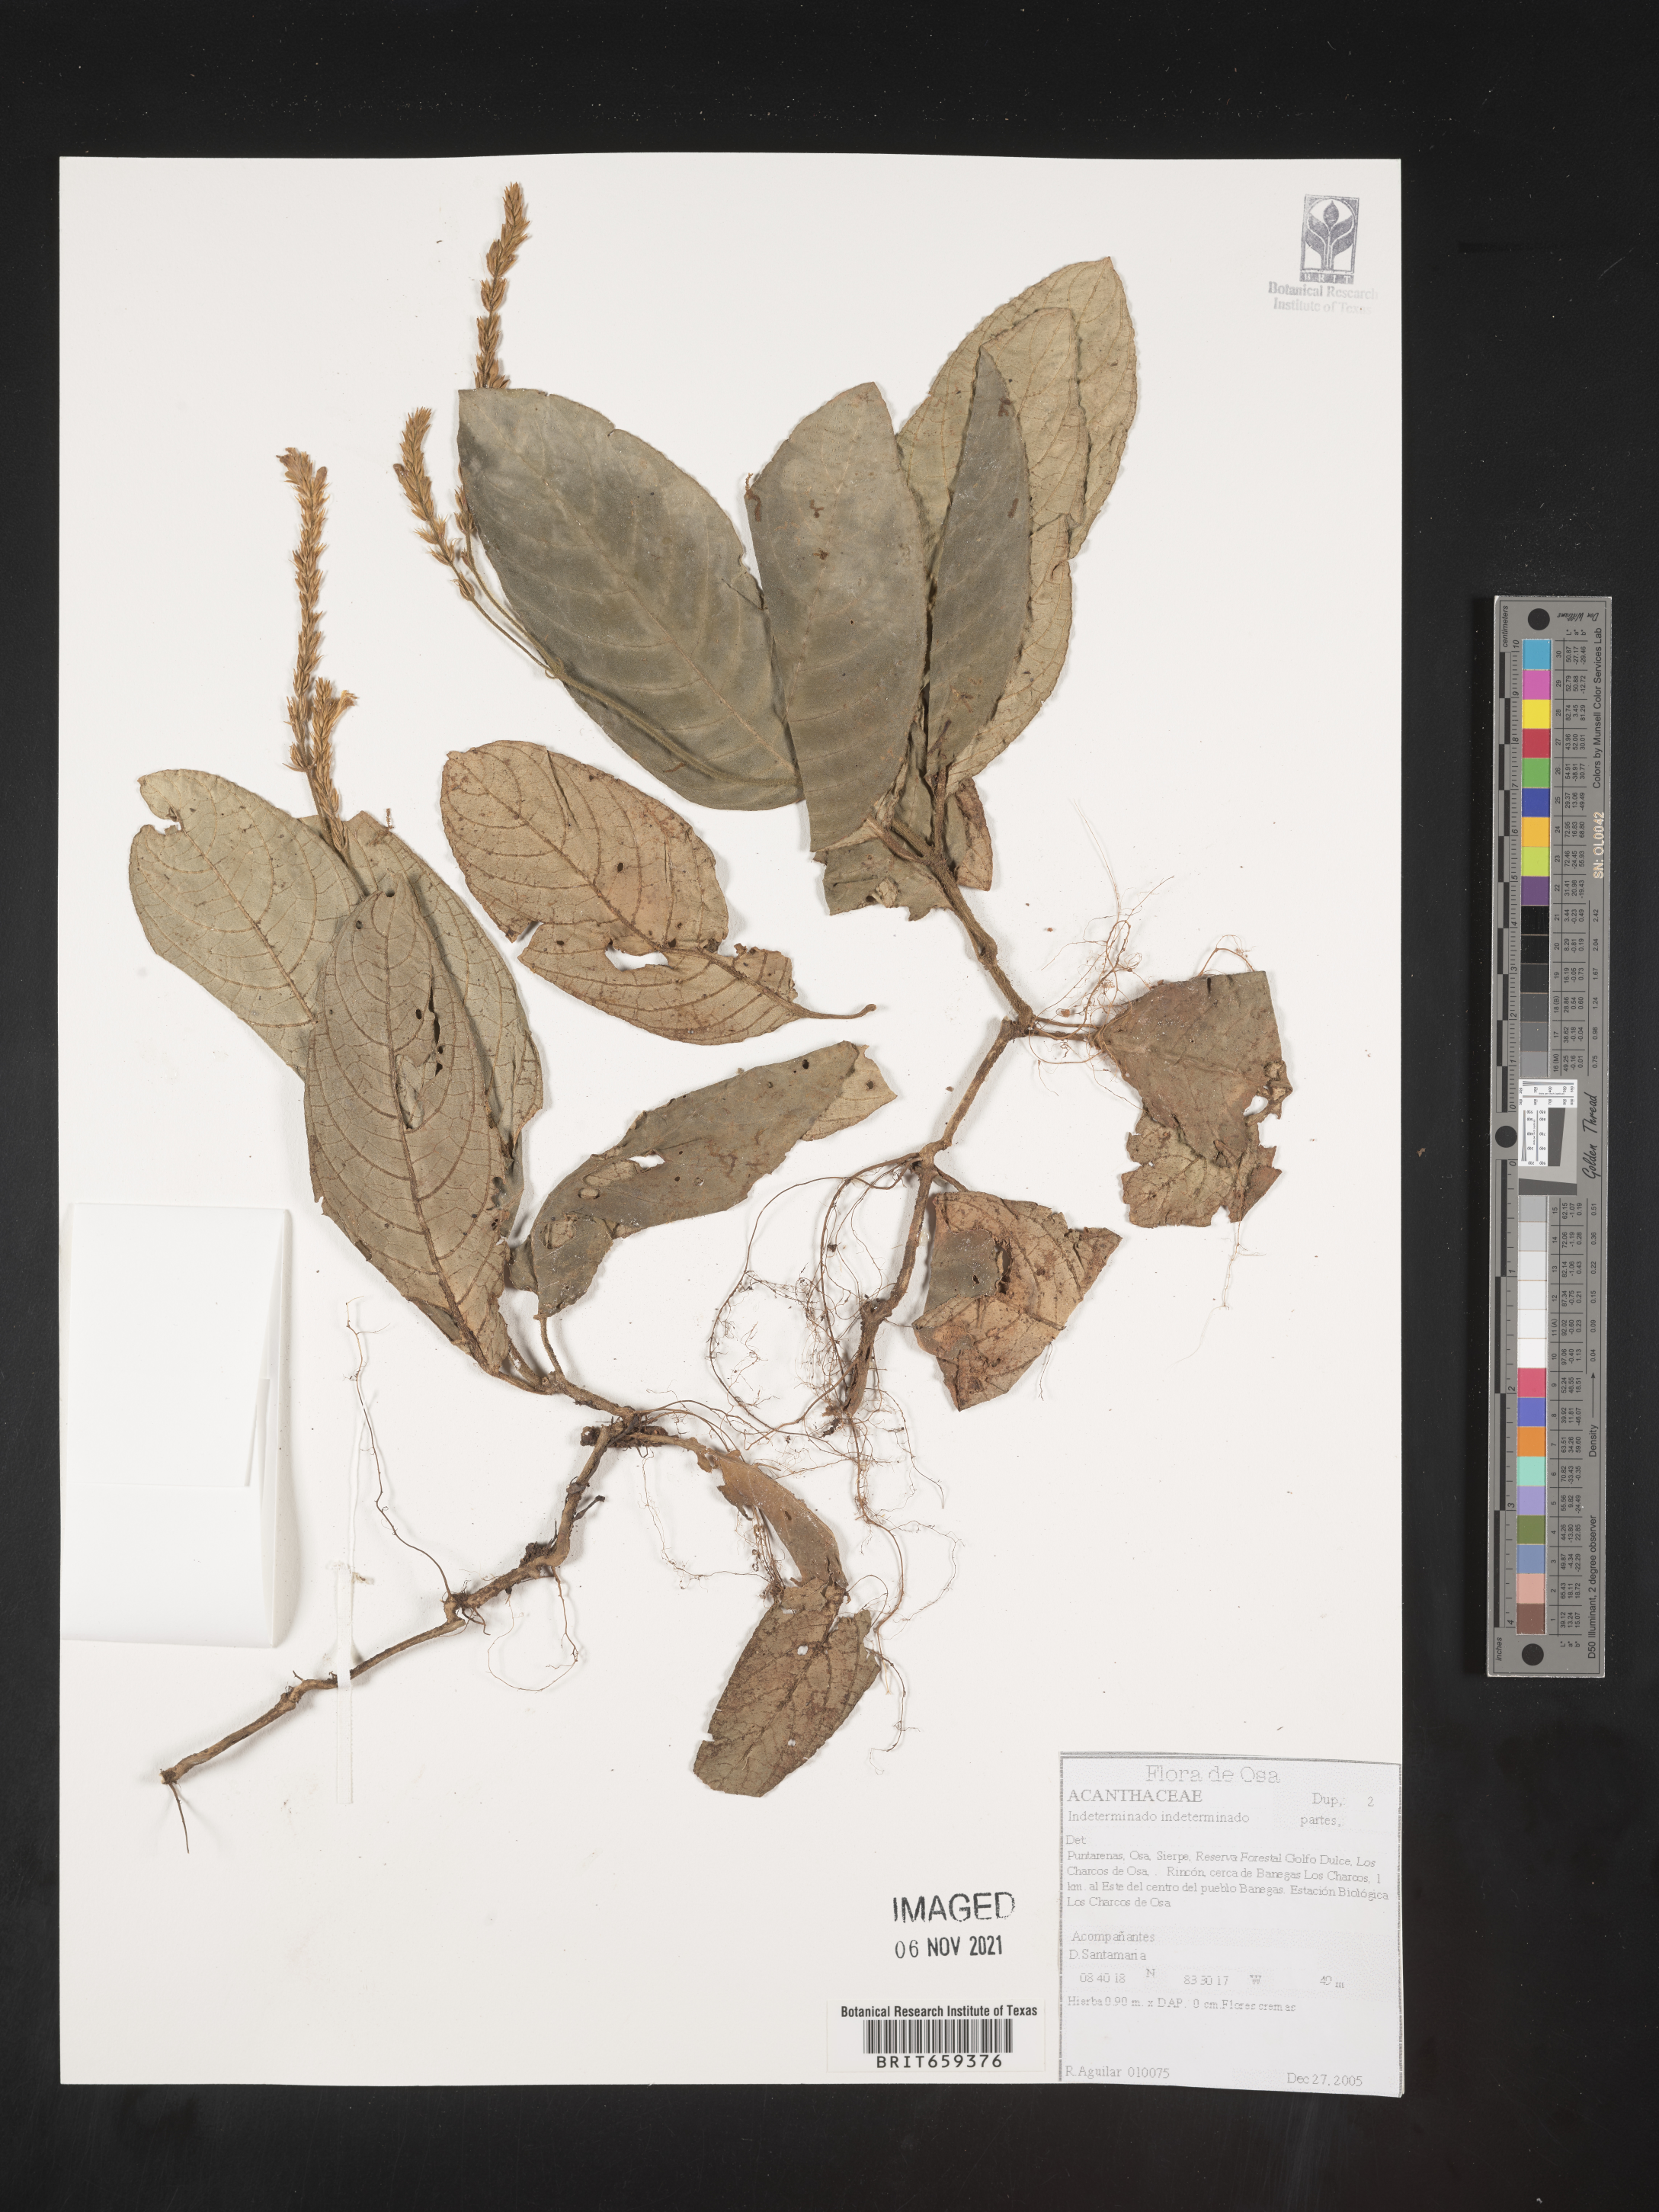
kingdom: Plantae
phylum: Tracheophyta
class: Magnoliopsida
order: Lamiales
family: Acanthaceae
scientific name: Acanthaceae
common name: Acanthaceae
